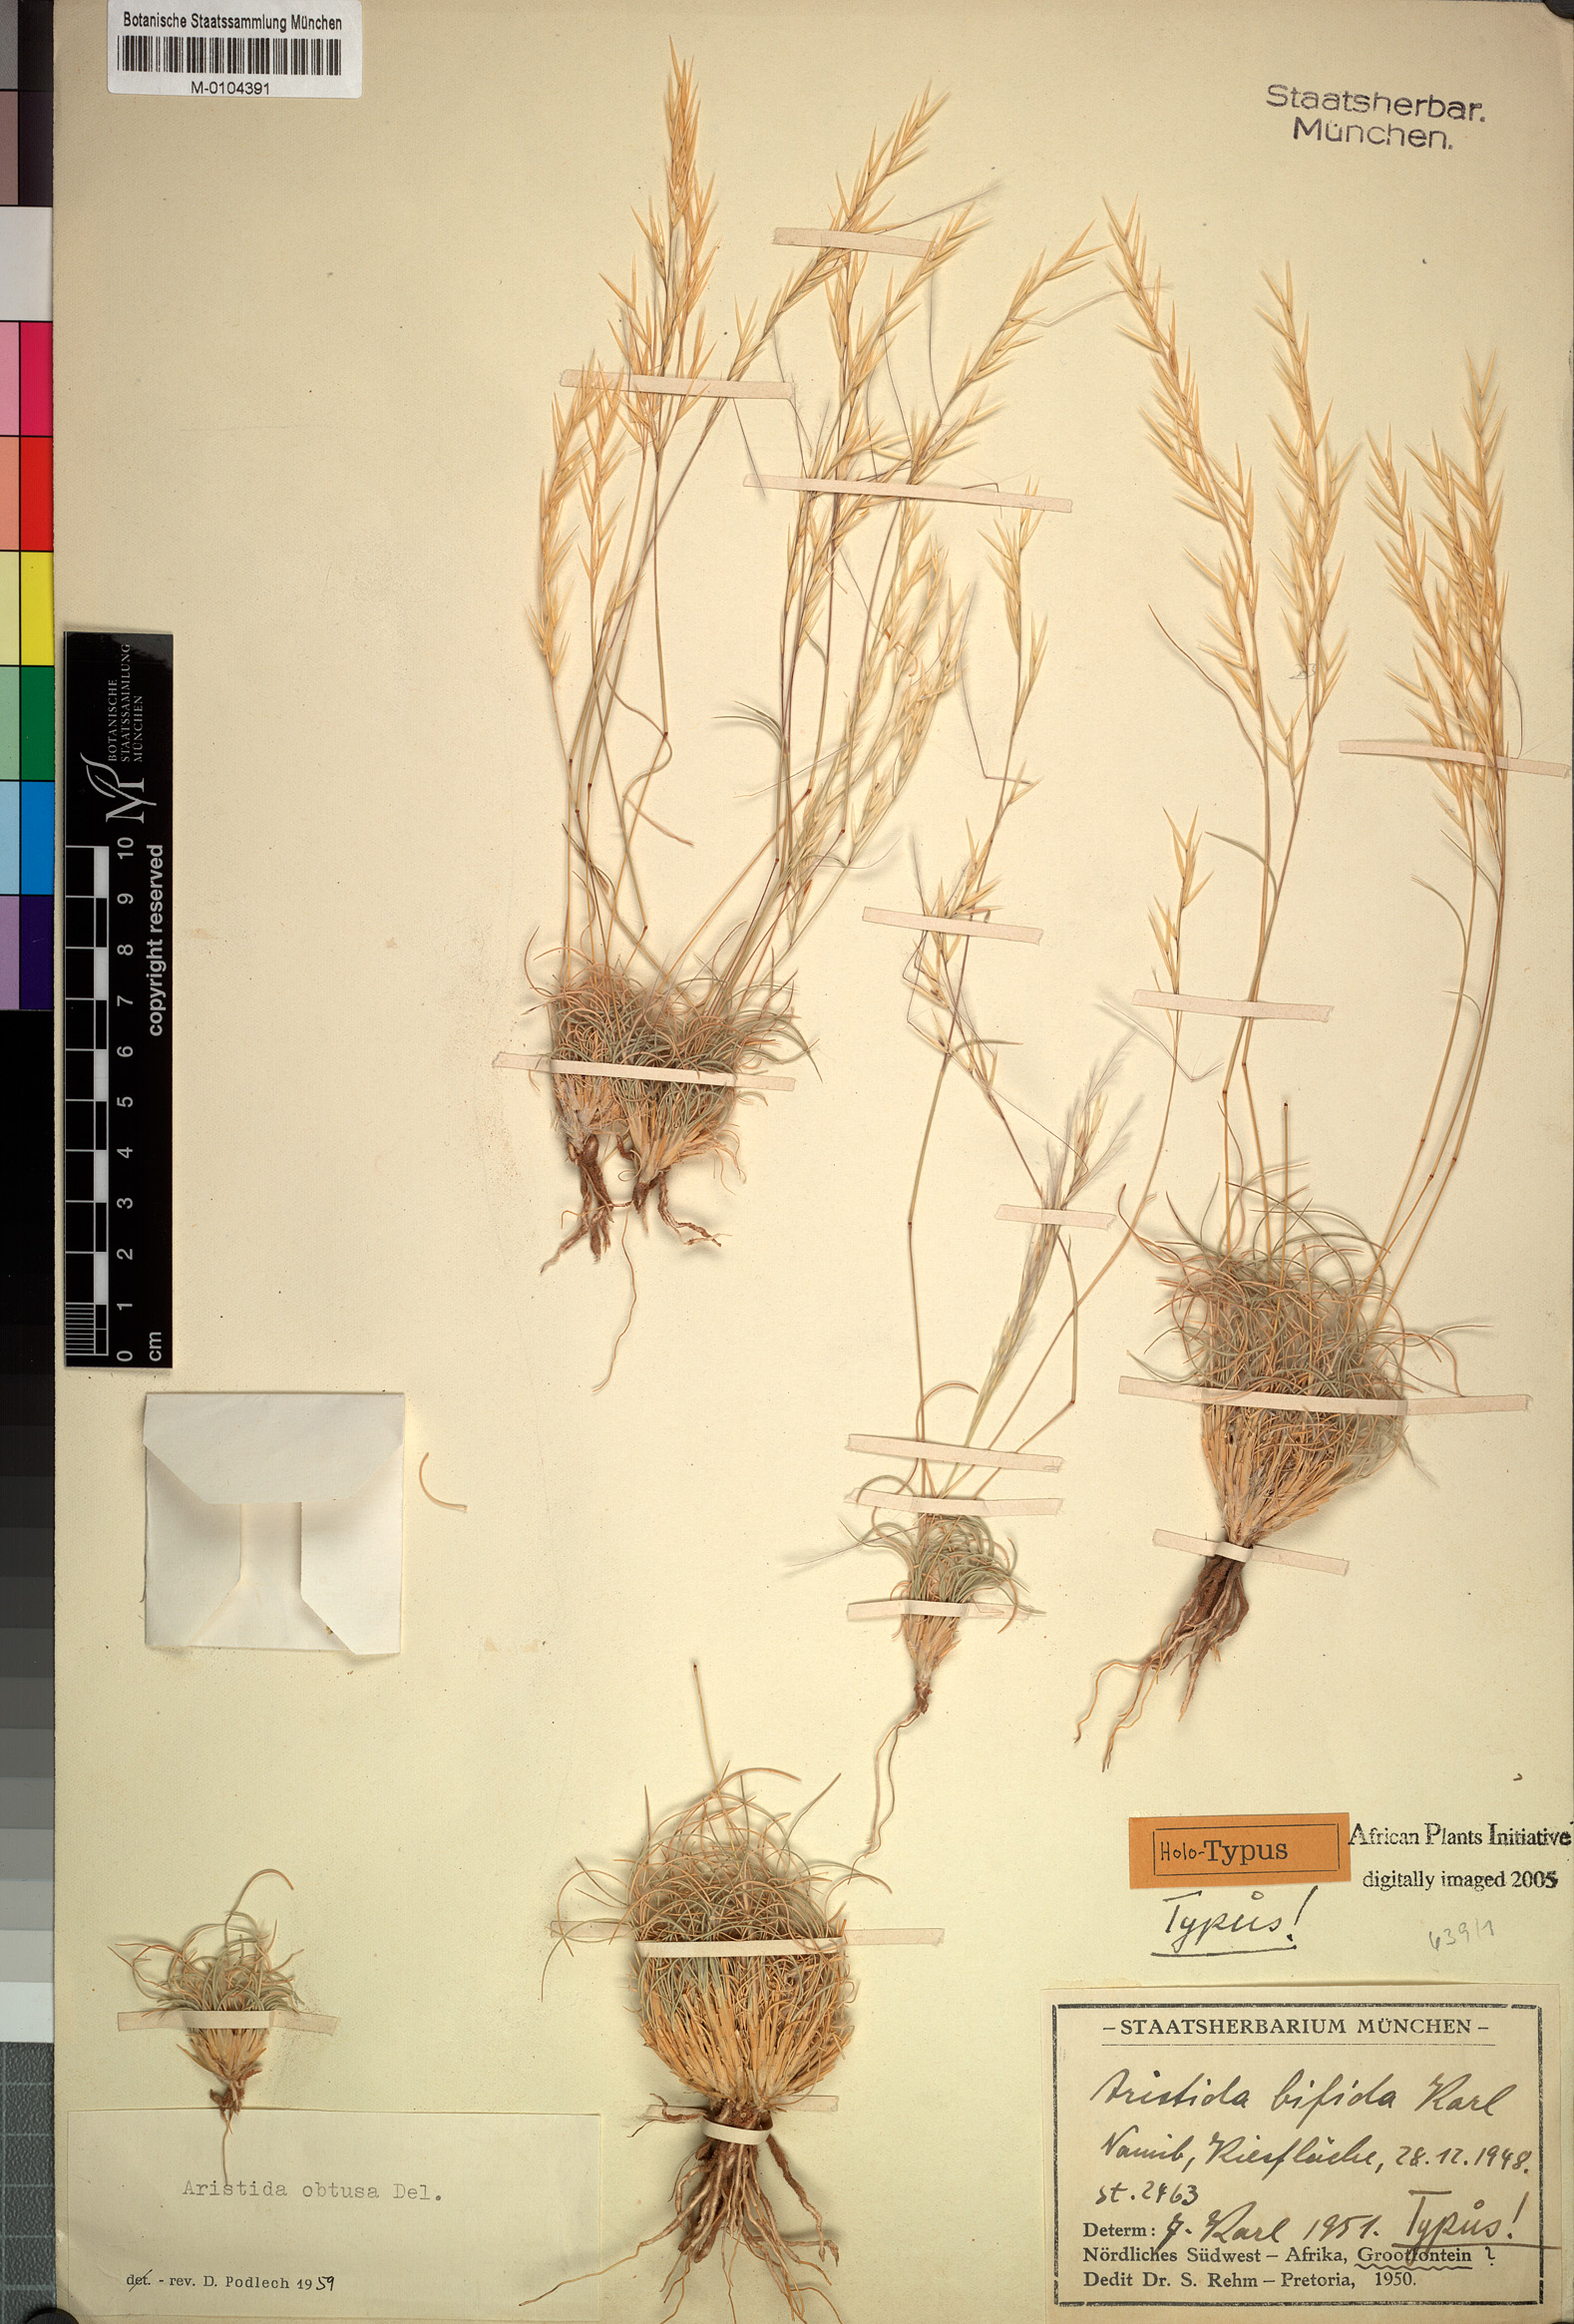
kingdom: Plantae
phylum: Tracheophyta
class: Liliopsida
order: Poales
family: Poaceae
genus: Stipagrostis
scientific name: Stipagrostis obtusa
